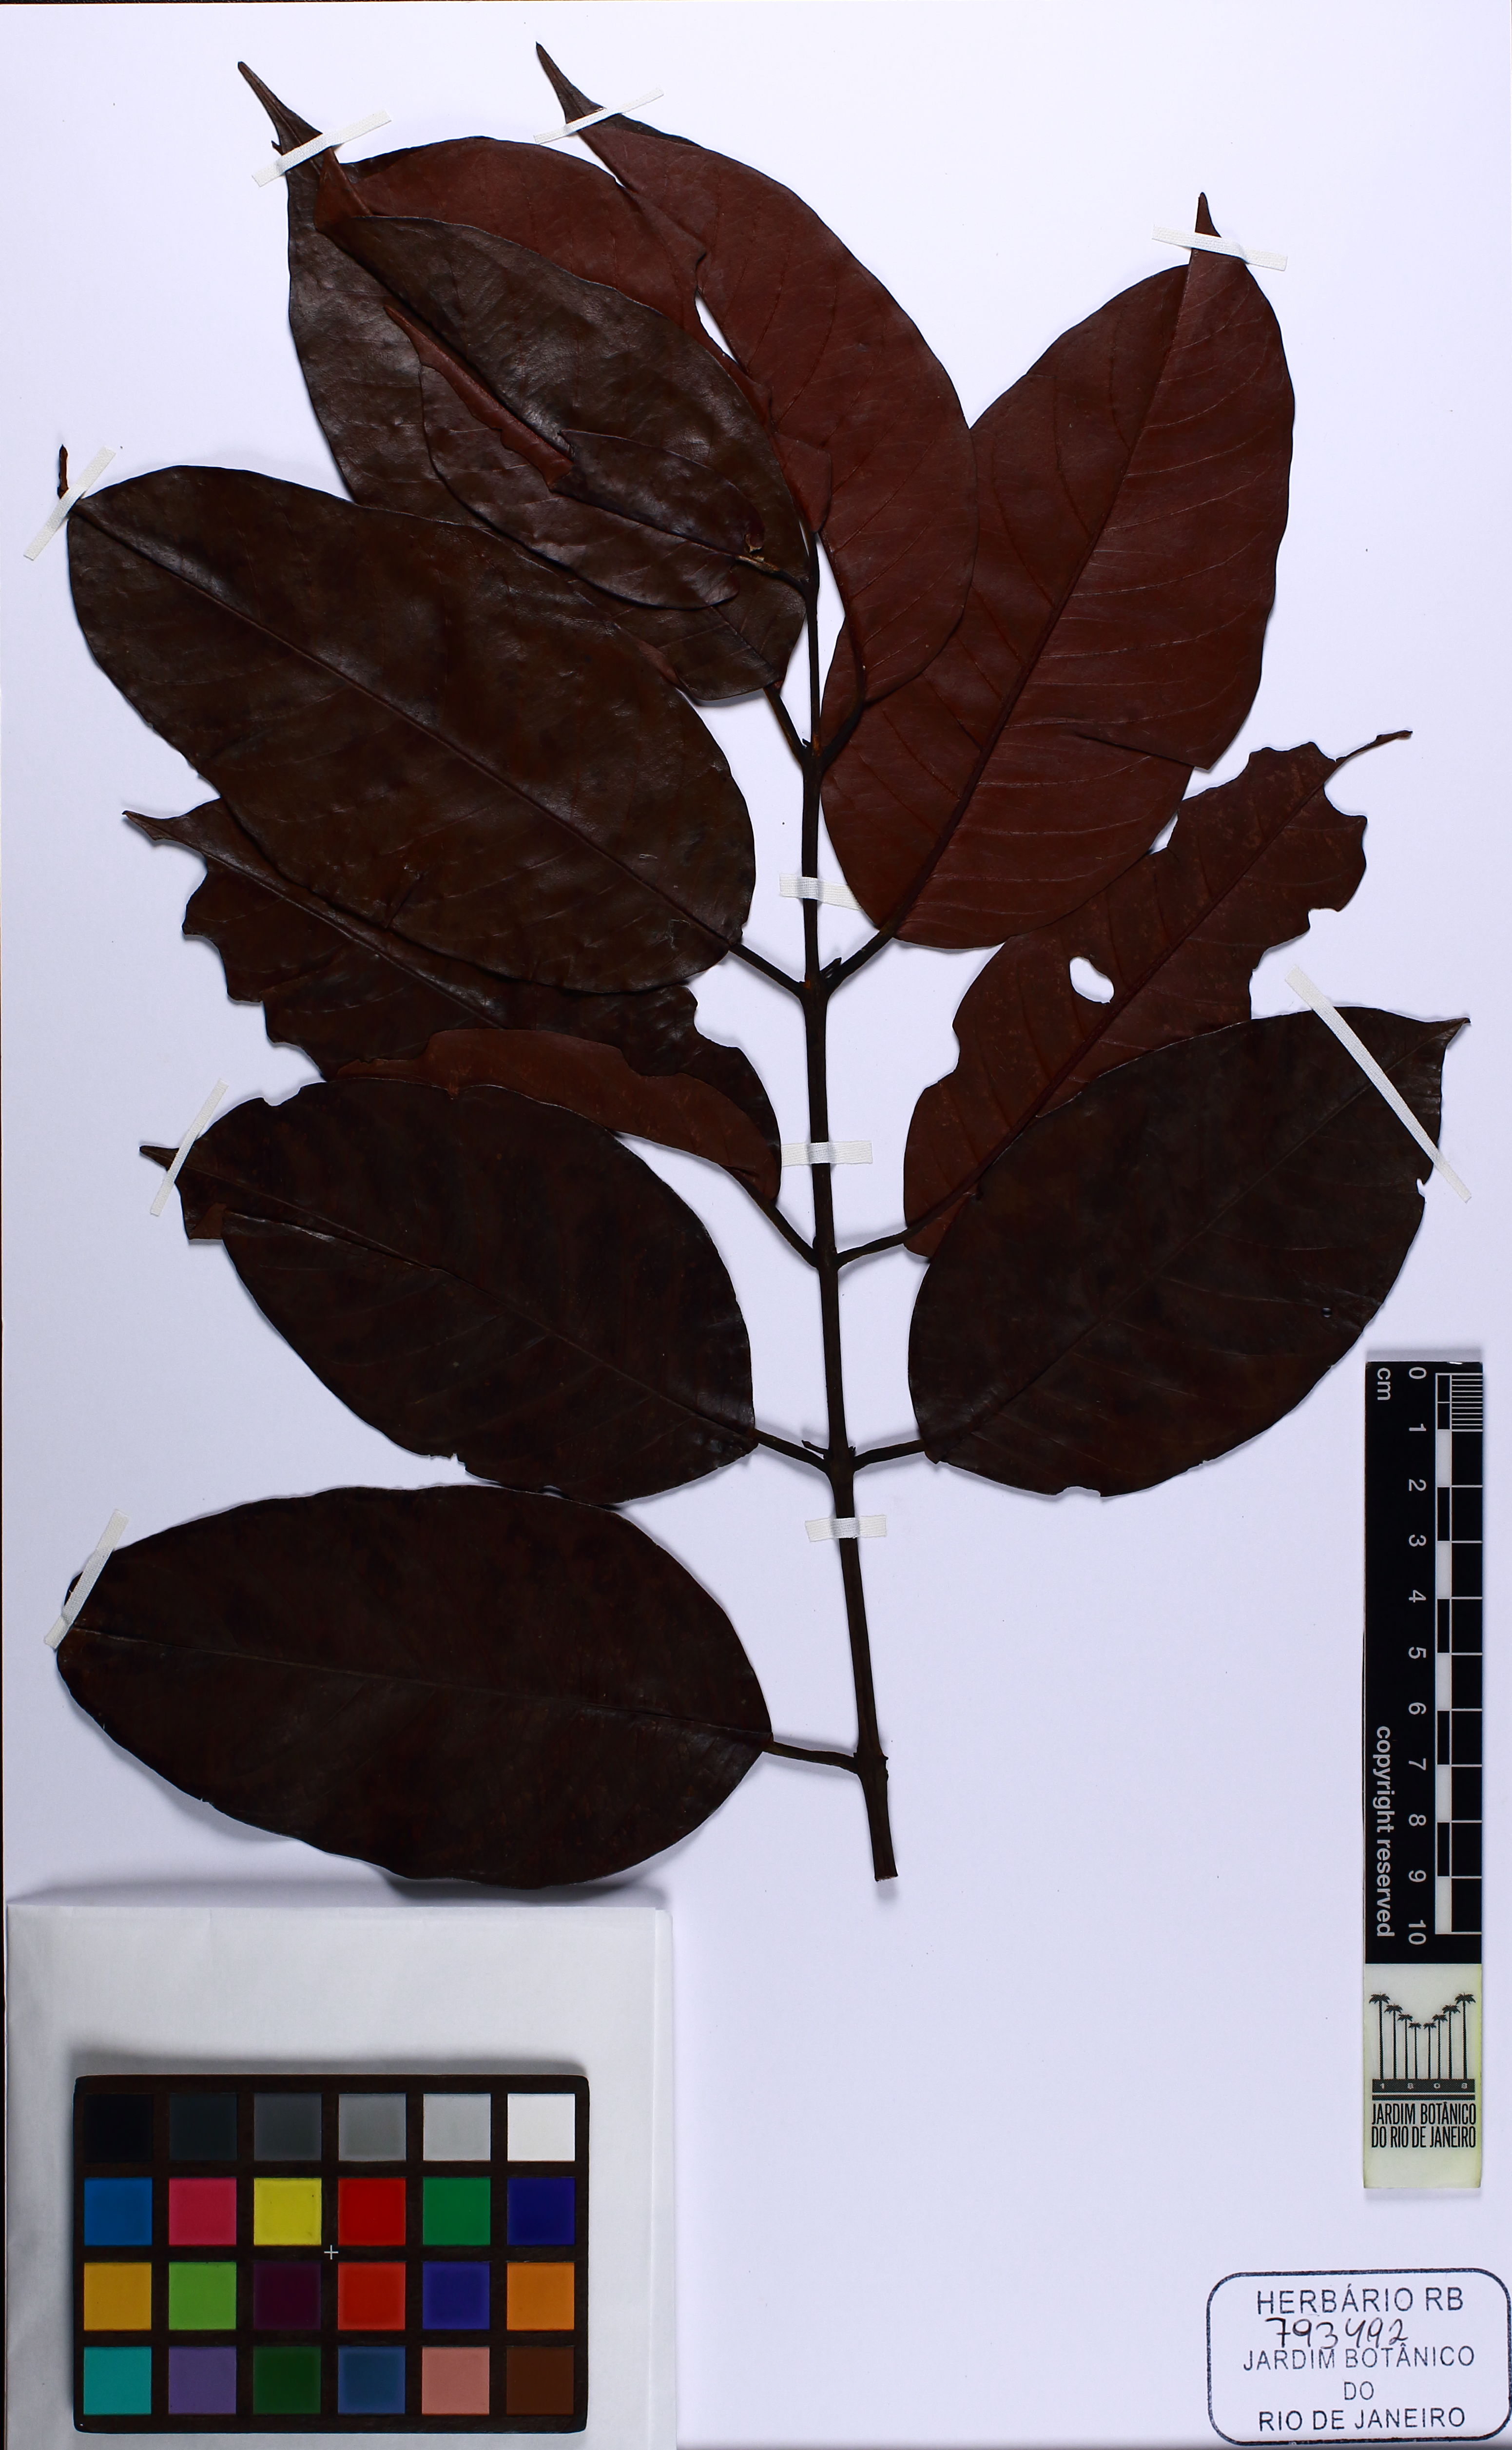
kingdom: Plantae
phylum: Tracheophyta
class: Magnoliopsida
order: Myrtales
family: Combretaceae
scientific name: Combretaceae
